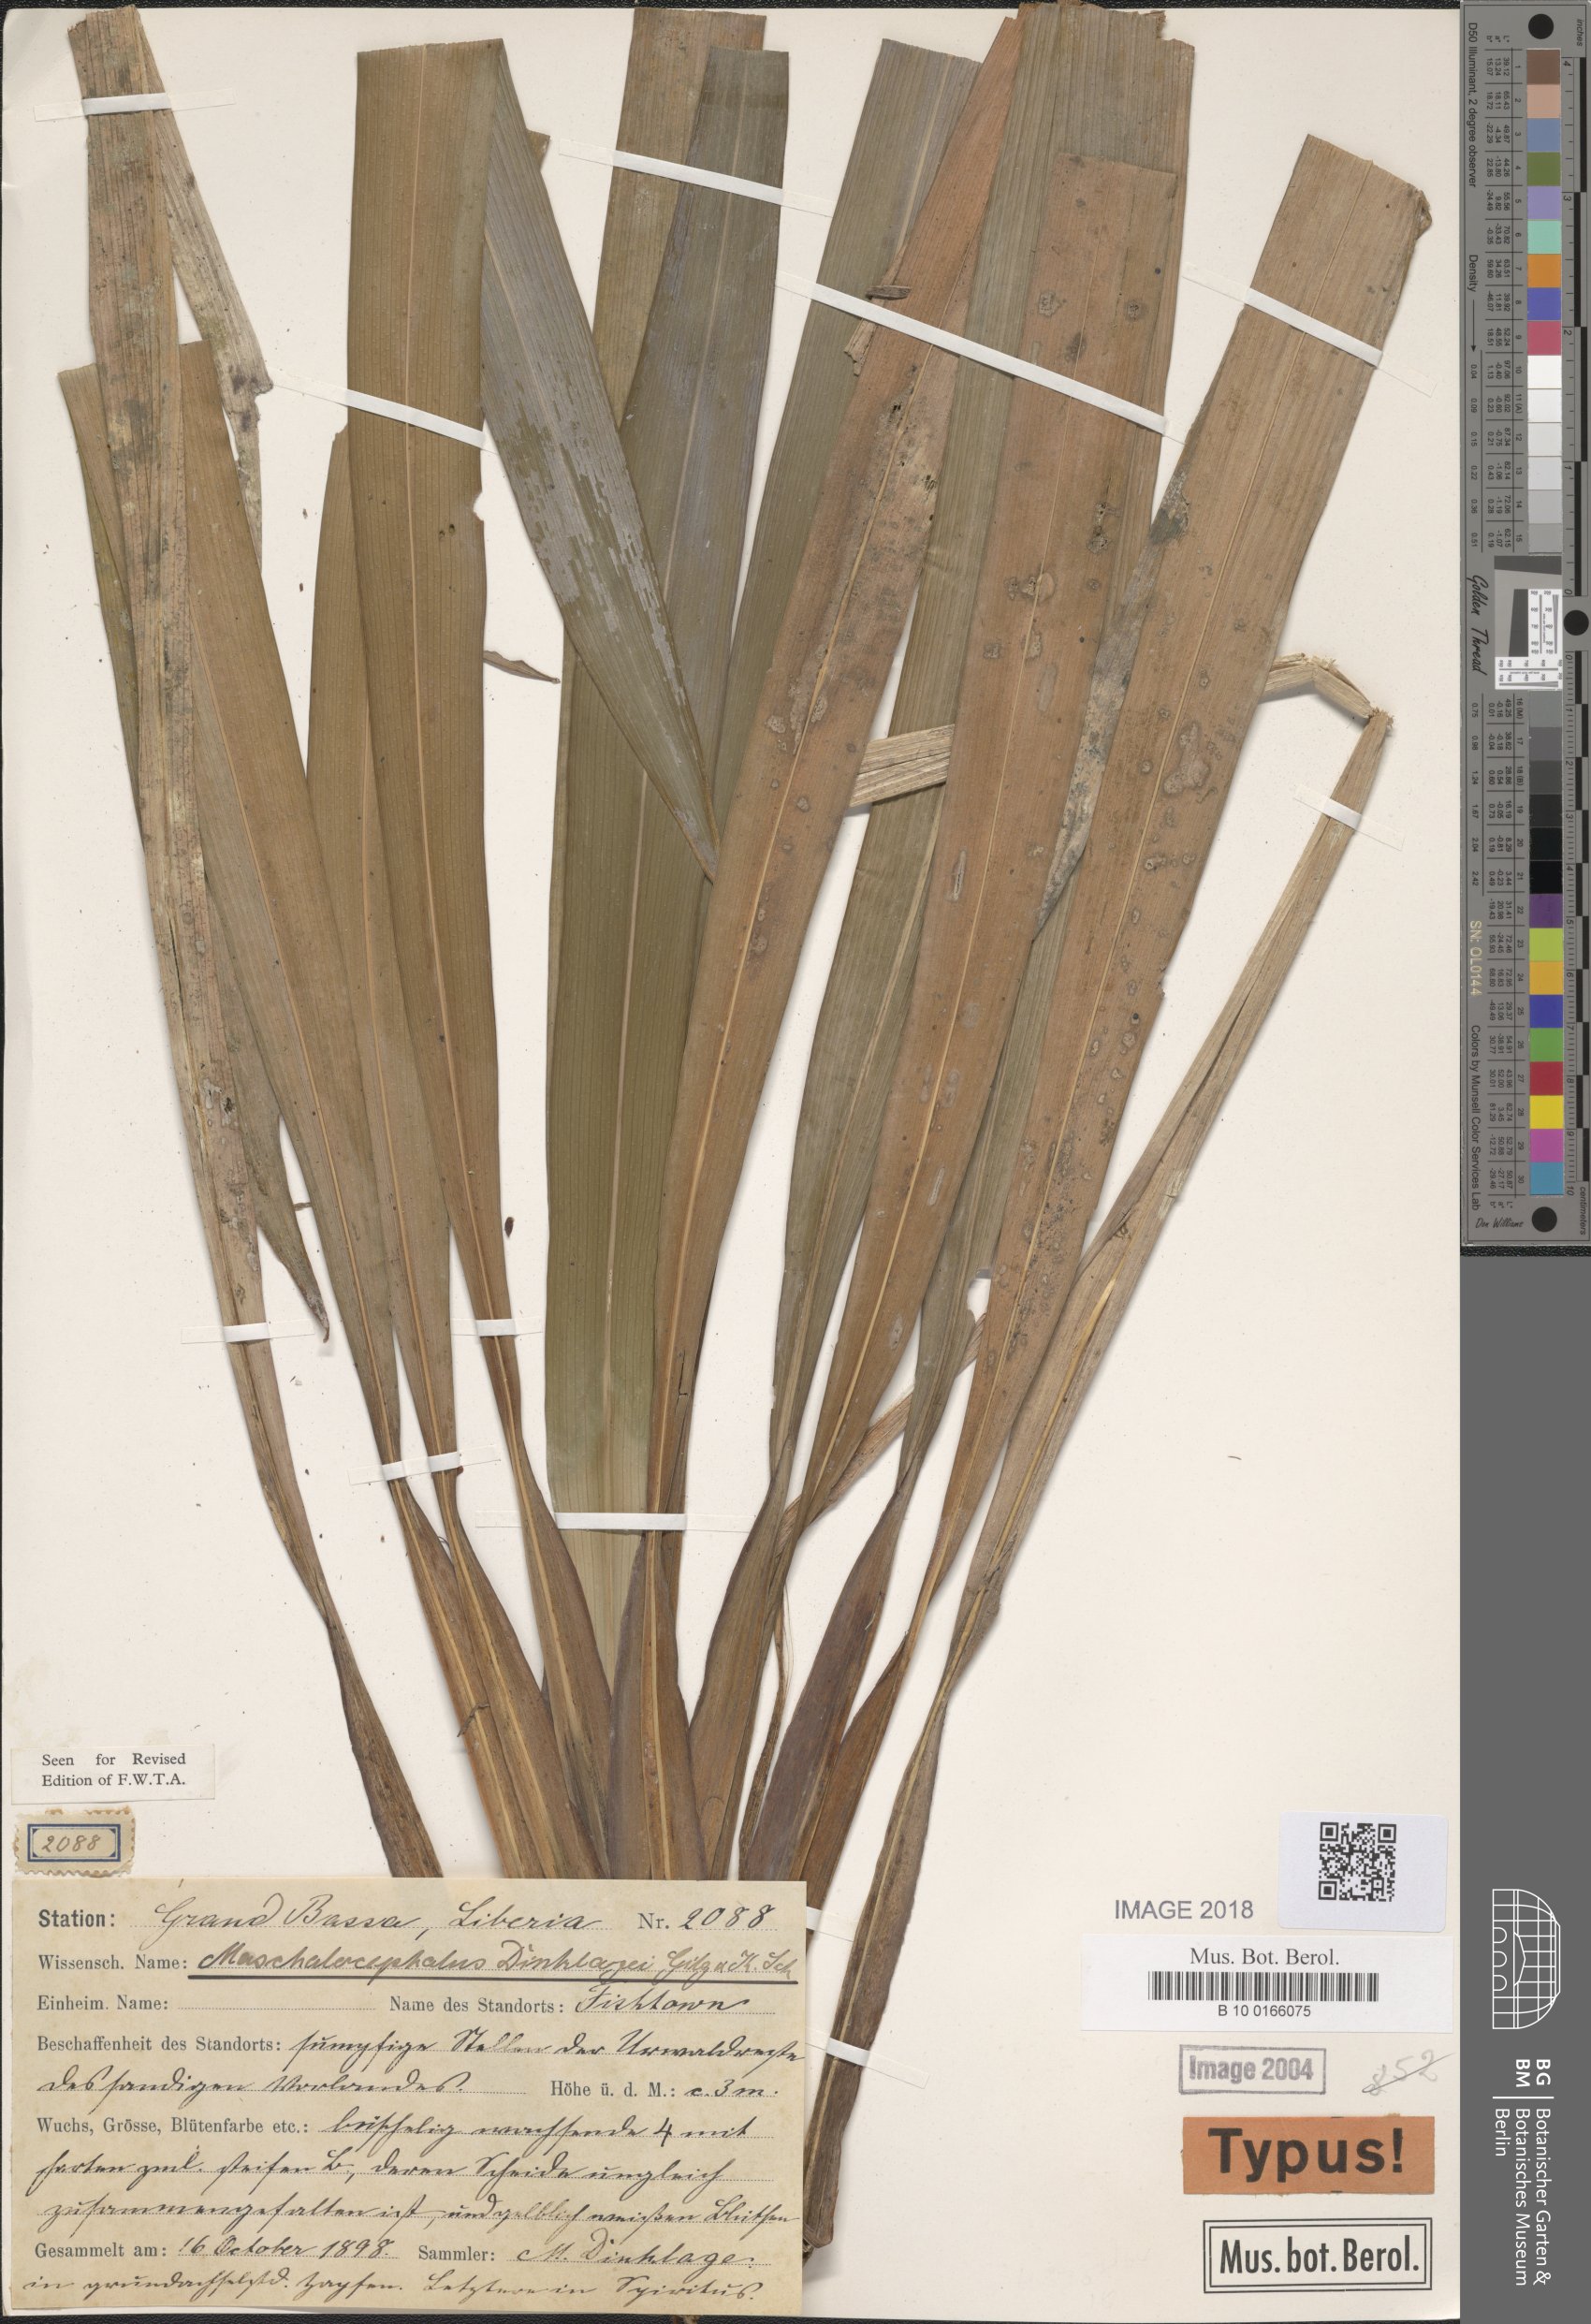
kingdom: Plantae
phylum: Tracheophyta
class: Liliopsida
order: Poales
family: Rapateaceae
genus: Maschalocephalus
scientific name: Maschalocephalus dinklagei
